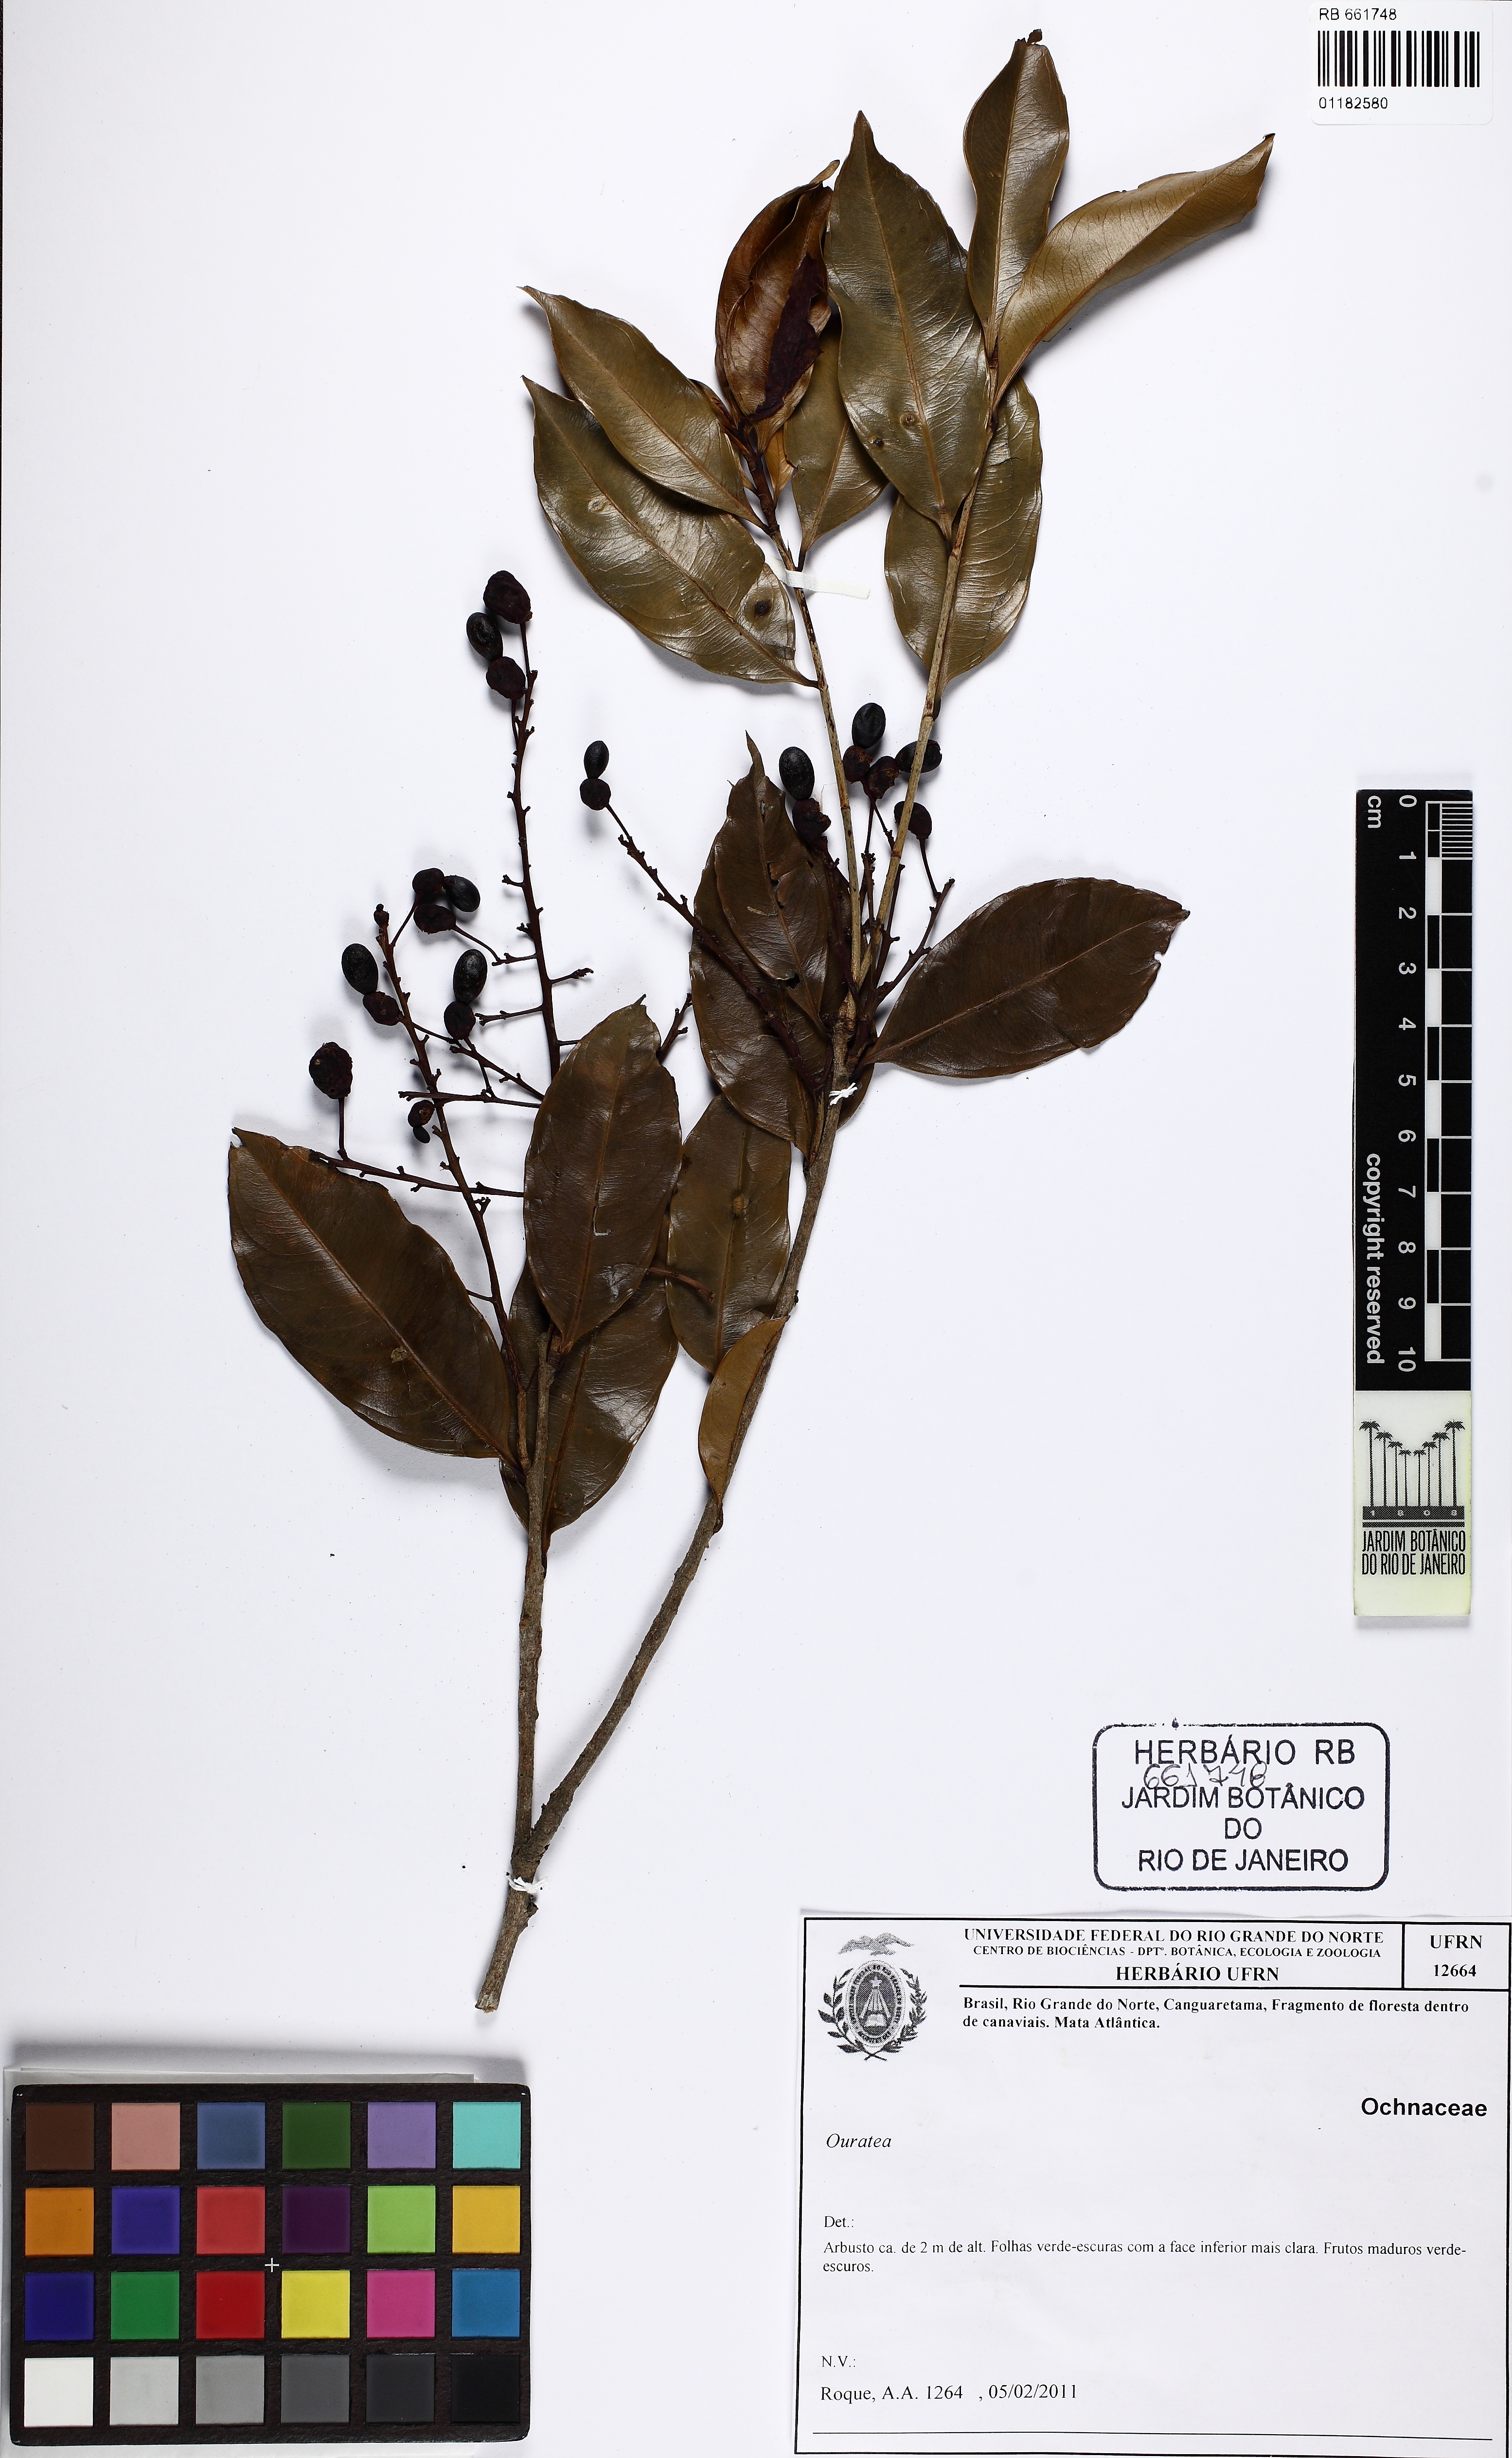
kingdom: Plantae
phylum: Tracheophyta
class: Magnoliopsida
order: Malpighiales
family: Ochnaceae
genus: Ouratea
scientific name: Ouratea
